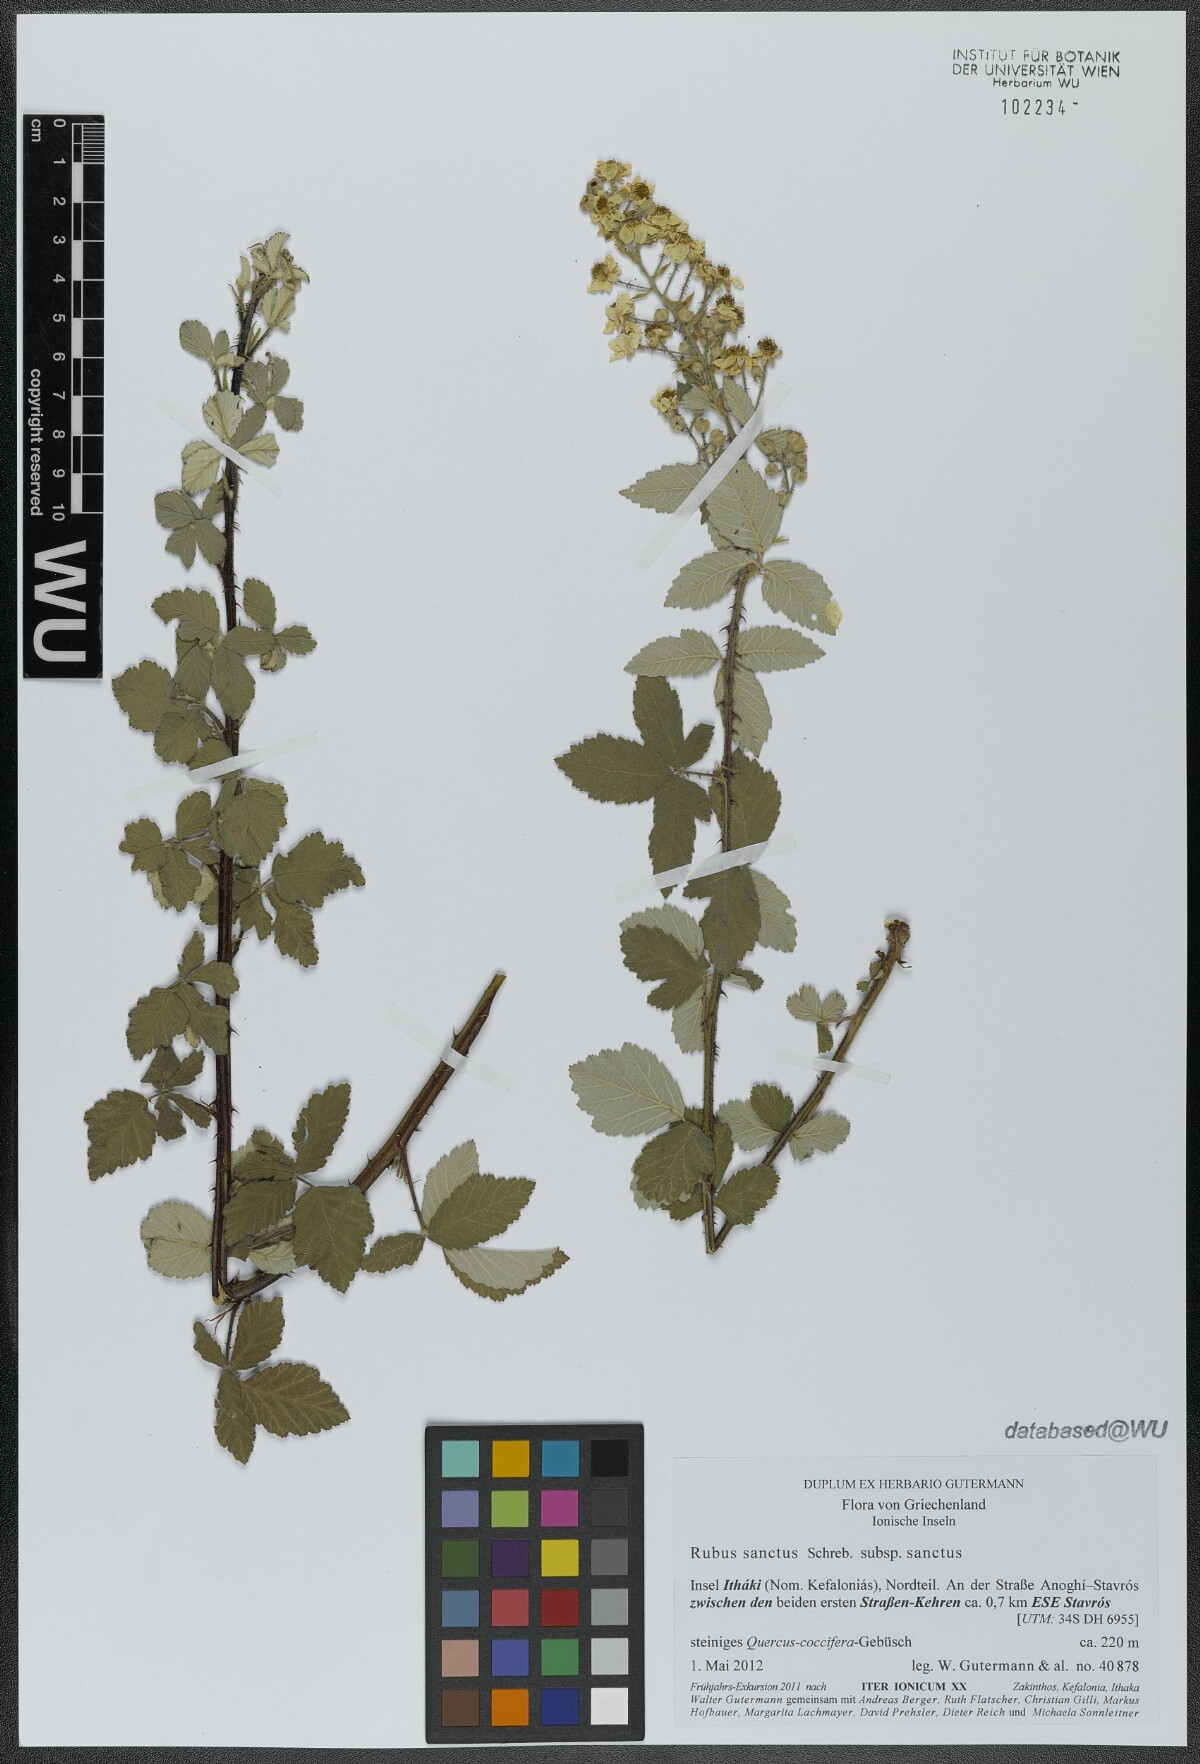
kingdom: Plantae
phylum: Tracheophyta
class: Magnoliopsida
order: Rosales
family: Rosaceae
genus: Rubus
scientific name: Rubus sanctus
